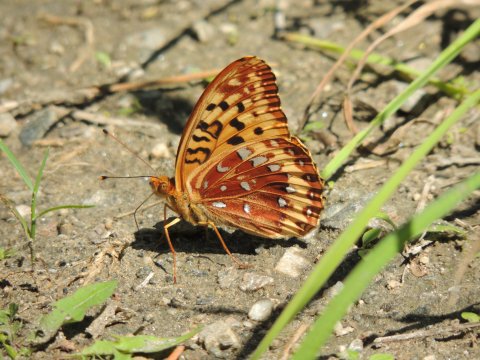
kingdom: Animalia
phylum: Arthropoda
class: Insecta
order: Lepidoptera
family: Nymphalidae
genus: Speyeria
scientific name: Speyeria cybele
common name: Great Spangled Fritillary
